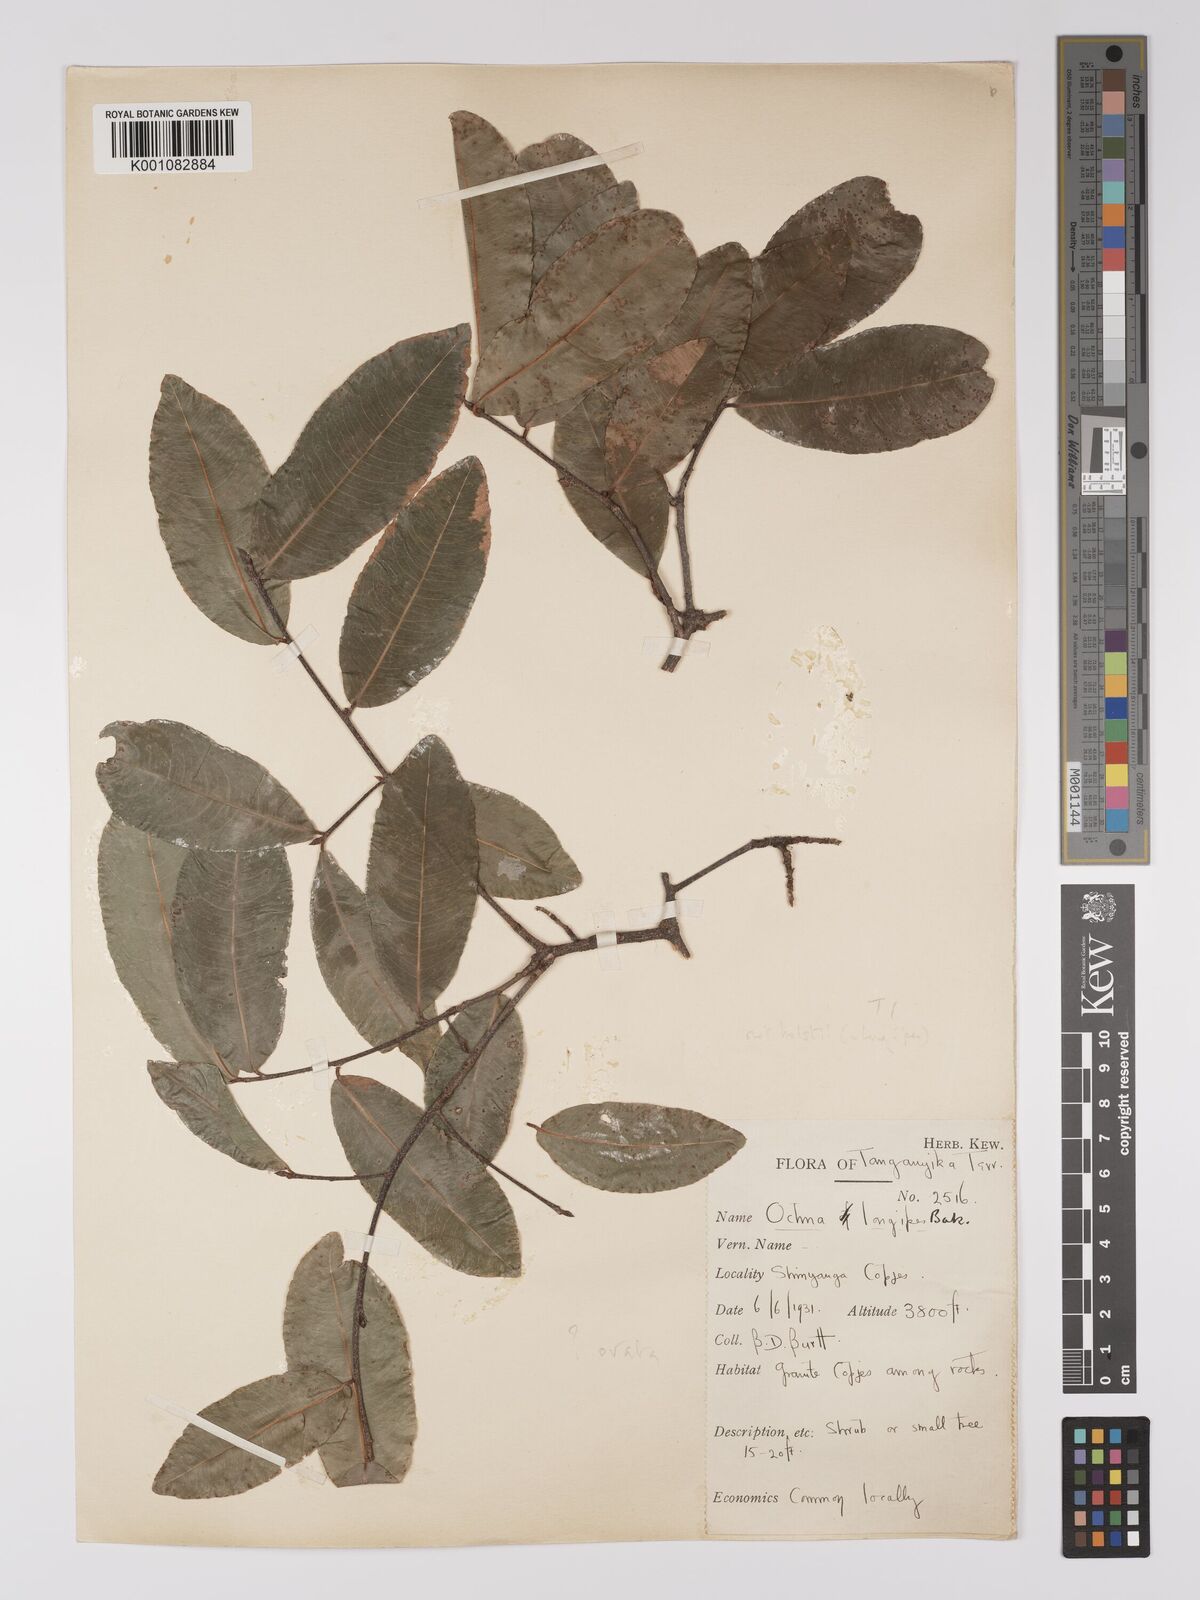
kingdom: Plantae
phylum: Tracheophyta
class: Magnoliopsida
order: Malpighiales
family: Ochnaceae
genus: Ochna
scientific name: Ochna ovata
